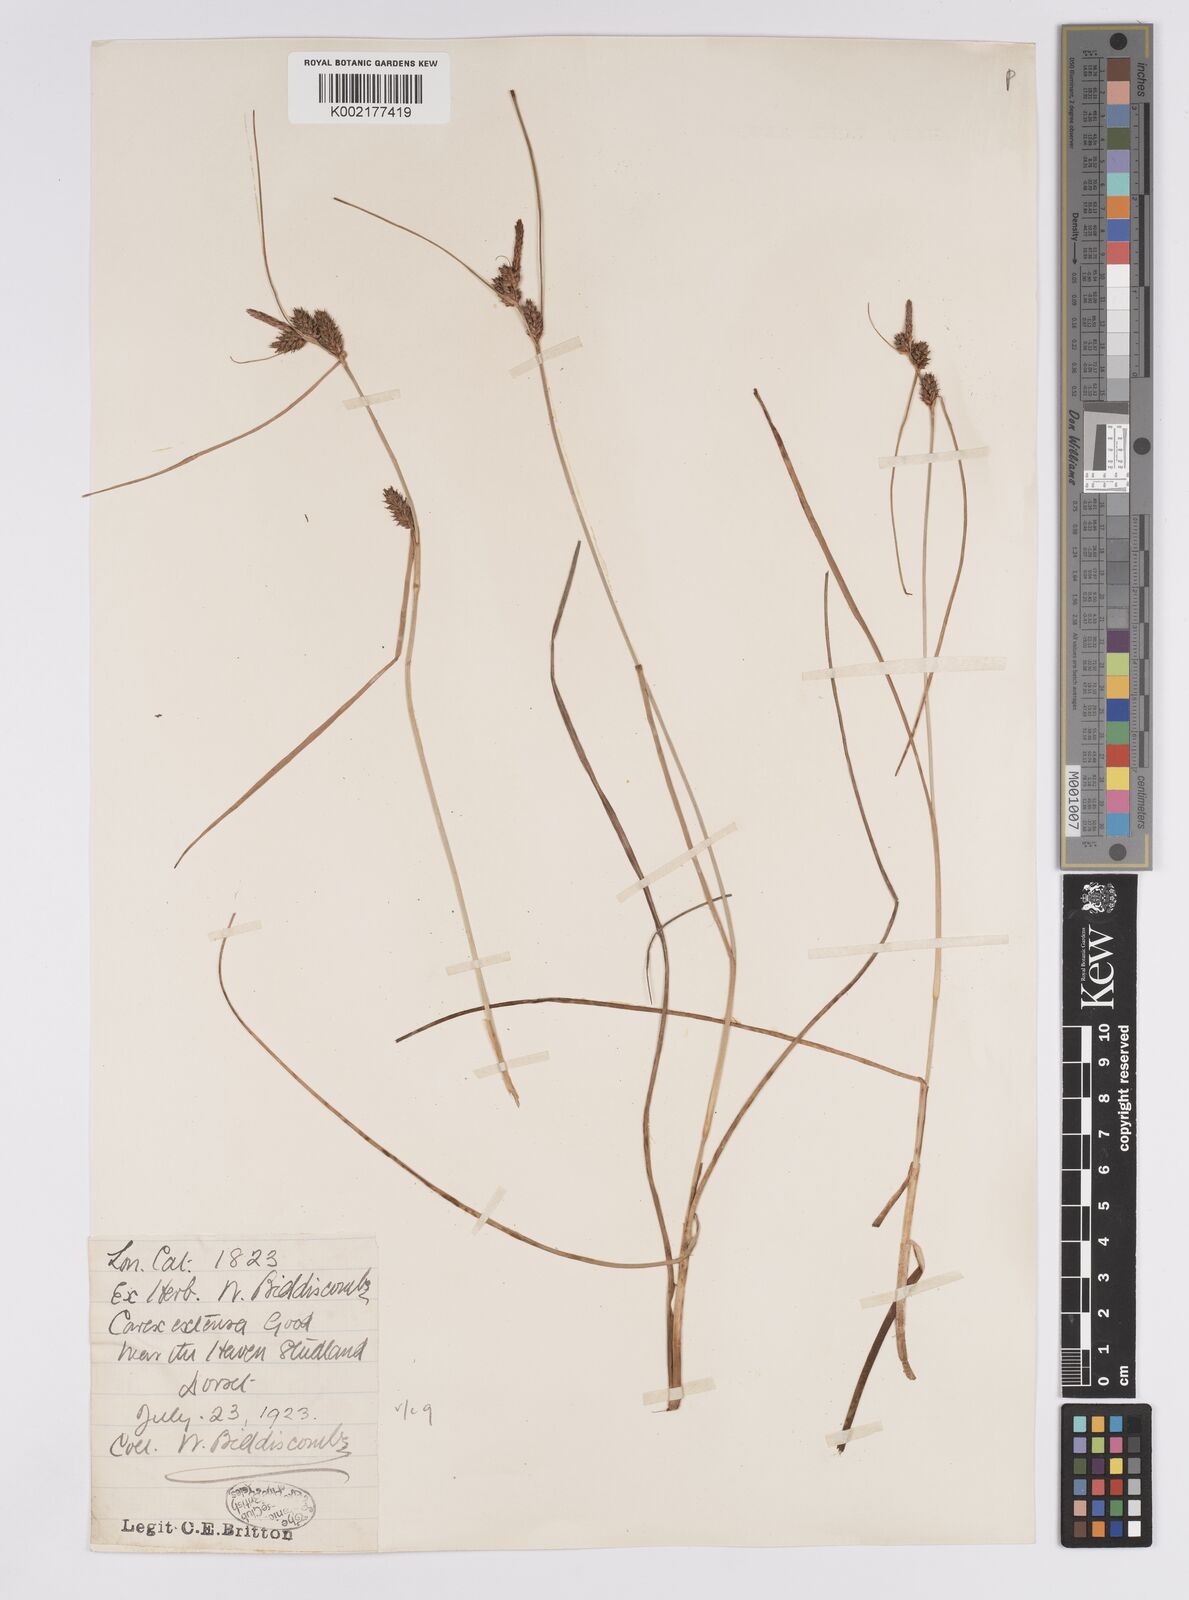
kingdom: Plantae
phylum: Tracheophyta
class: Liliopsida
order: Poales
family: Cyperaceae
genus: Carex
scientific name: Carex extensa
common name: Long-bracted sedge
